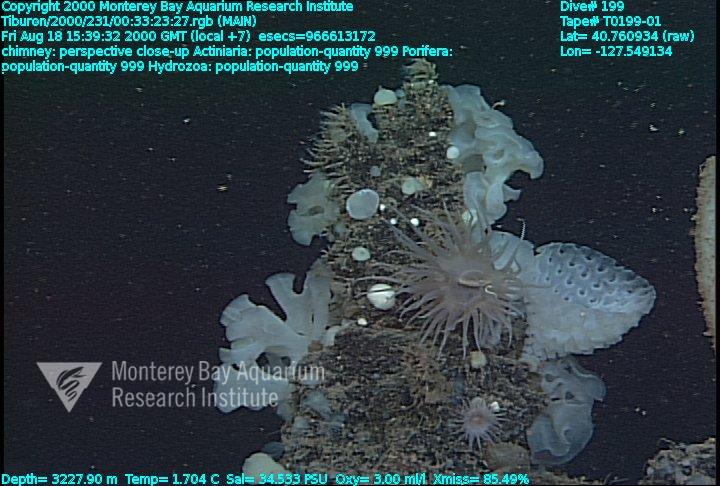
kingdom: Animalia
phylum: Porifera
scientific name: Porifera
